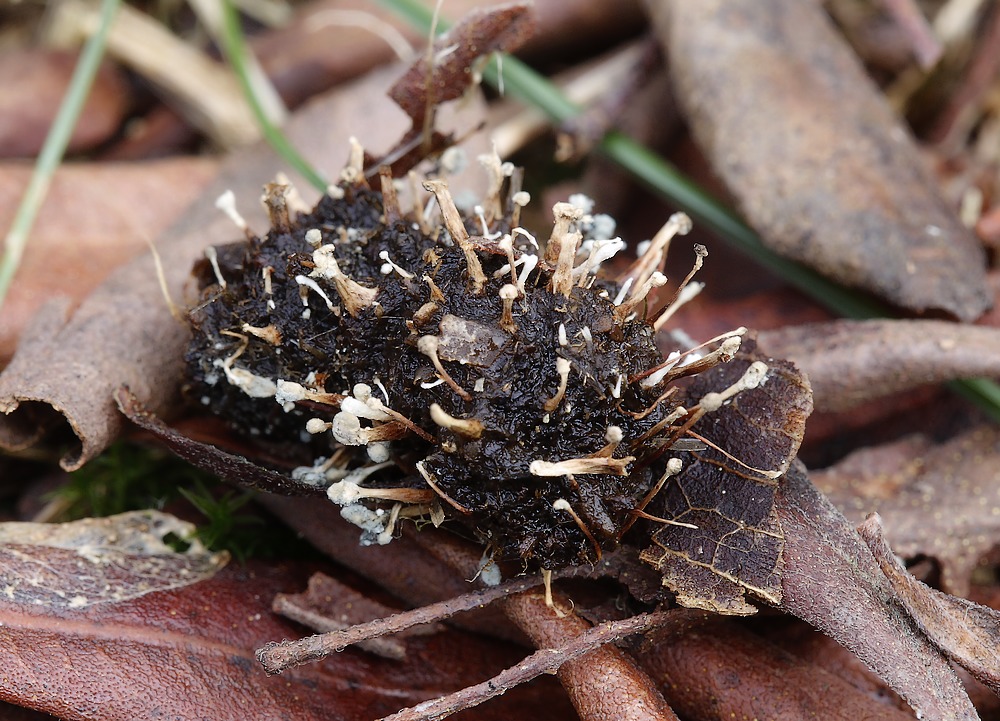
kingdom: Fungi
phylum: Ascomycota
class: Eurotiomycetes
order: Eurotiales
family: Aspergillaceae
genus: Penicillium
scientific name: Penicillium
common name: penselskimmel
